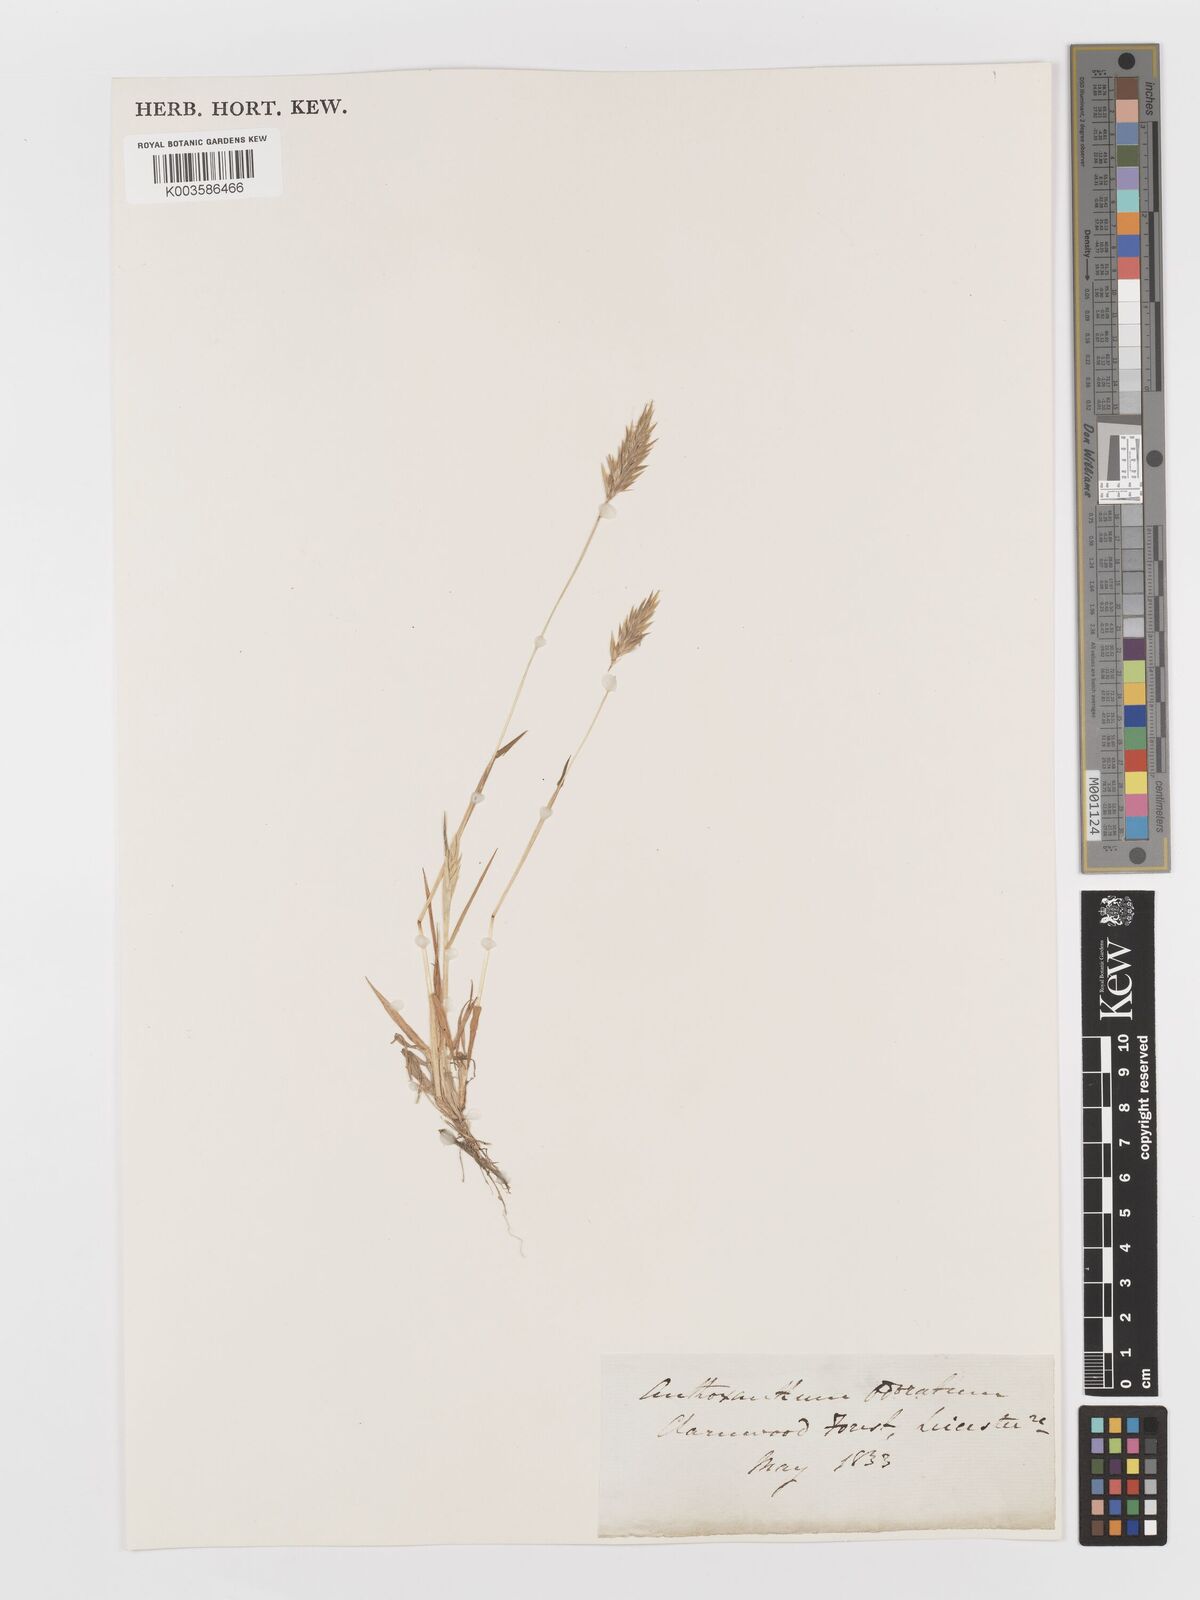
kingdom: Plantae
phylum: Tracheophyta
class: Liliopsida
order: Poales
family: Poaceae
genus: Anthoxanthum
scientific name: Anthoxanthum odoratum
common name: Sweet vernalgrass
